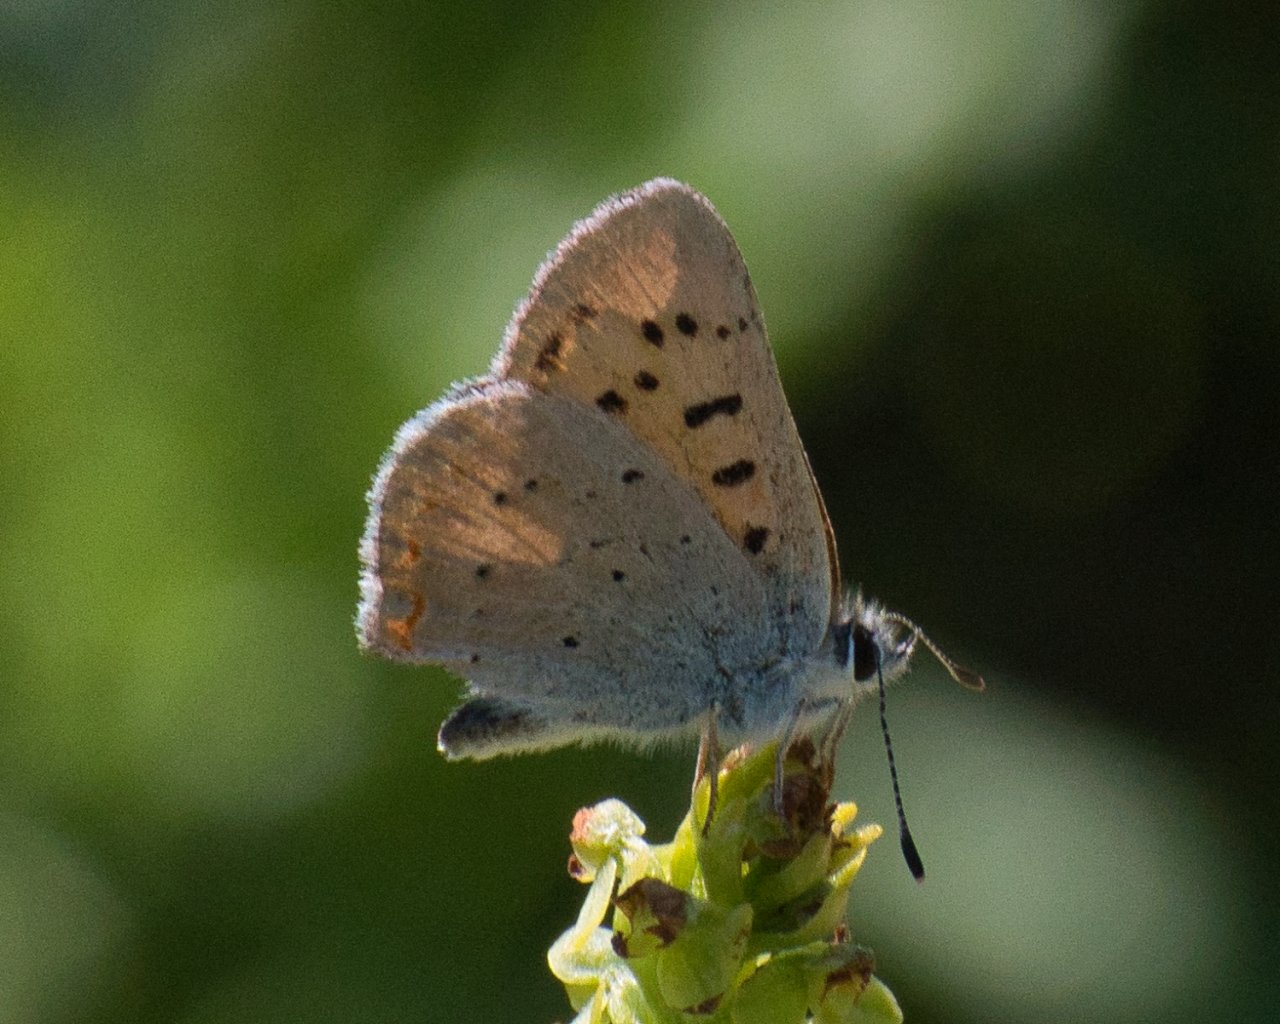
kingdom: Animalia
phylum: Arthropoda
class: Insecta
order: Lepidoptera
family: Sesiidae
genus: Sesia
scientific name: Sesia Lycaena helloides
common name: Purplish Copper
